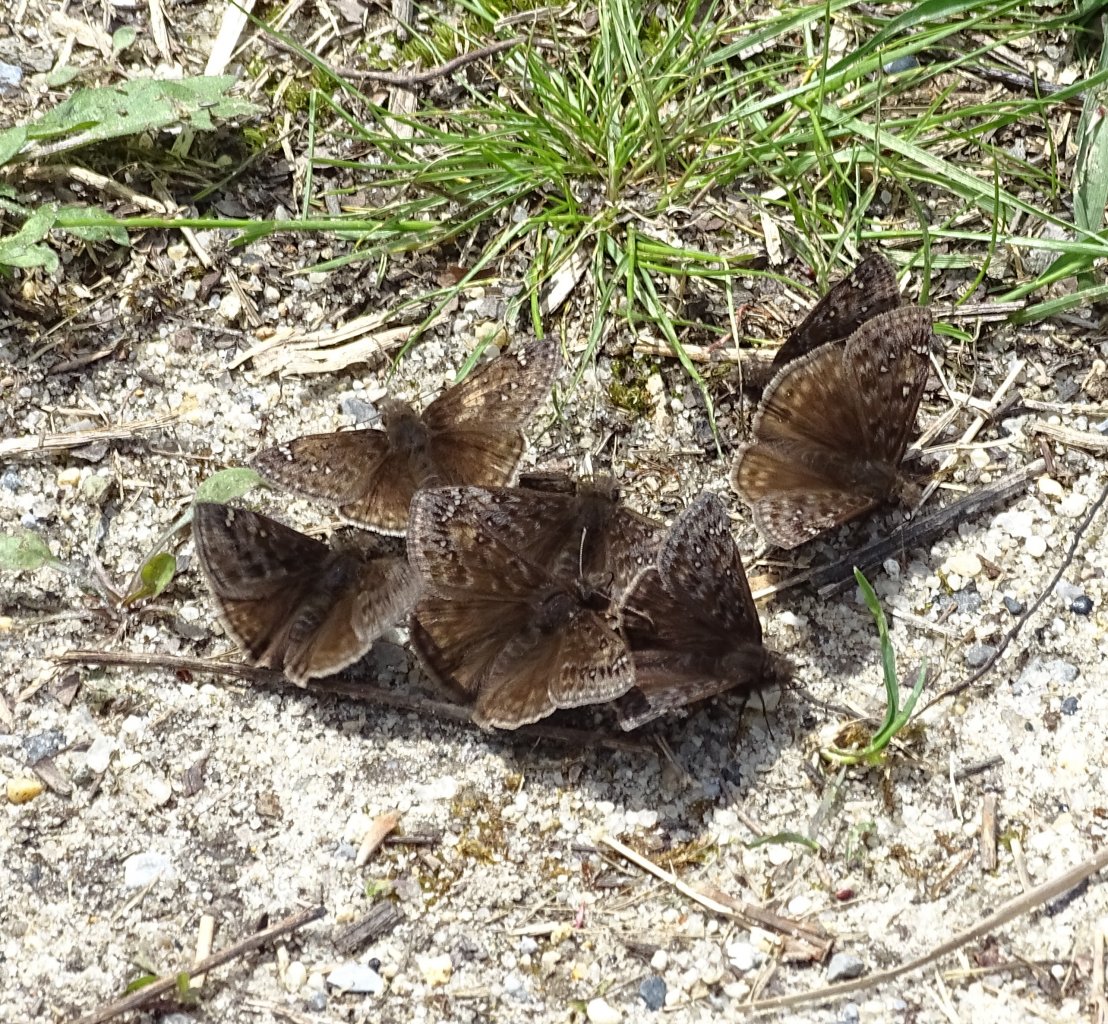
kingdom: Animalia
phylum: Arthropoda
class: Insecta
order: Lepidoptera
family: Hesperiidae
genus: Gesta
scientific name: Gesta
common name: Juvenal's Duskywing
